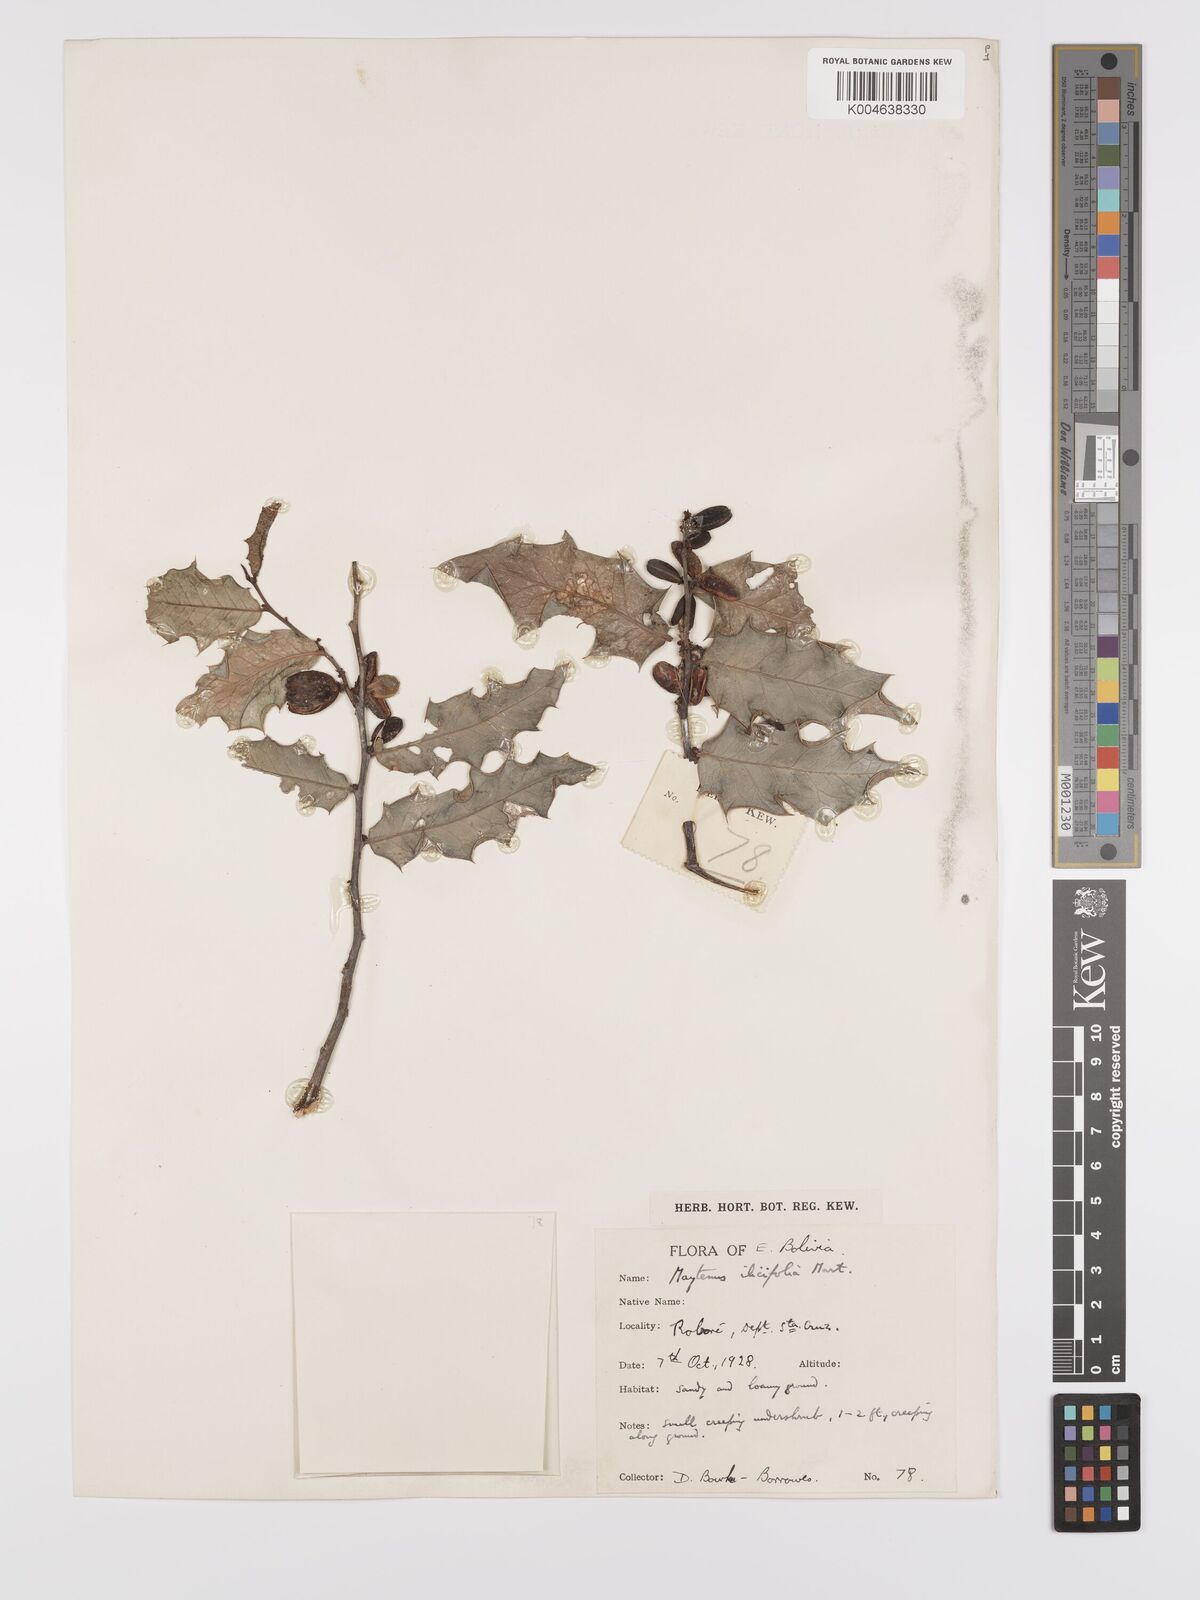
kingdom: Plantae
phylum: Tracheophyta
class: Magnoliopsida
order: Celastrales
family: Celastraceae
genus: Maytenus
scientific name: Maytenus
